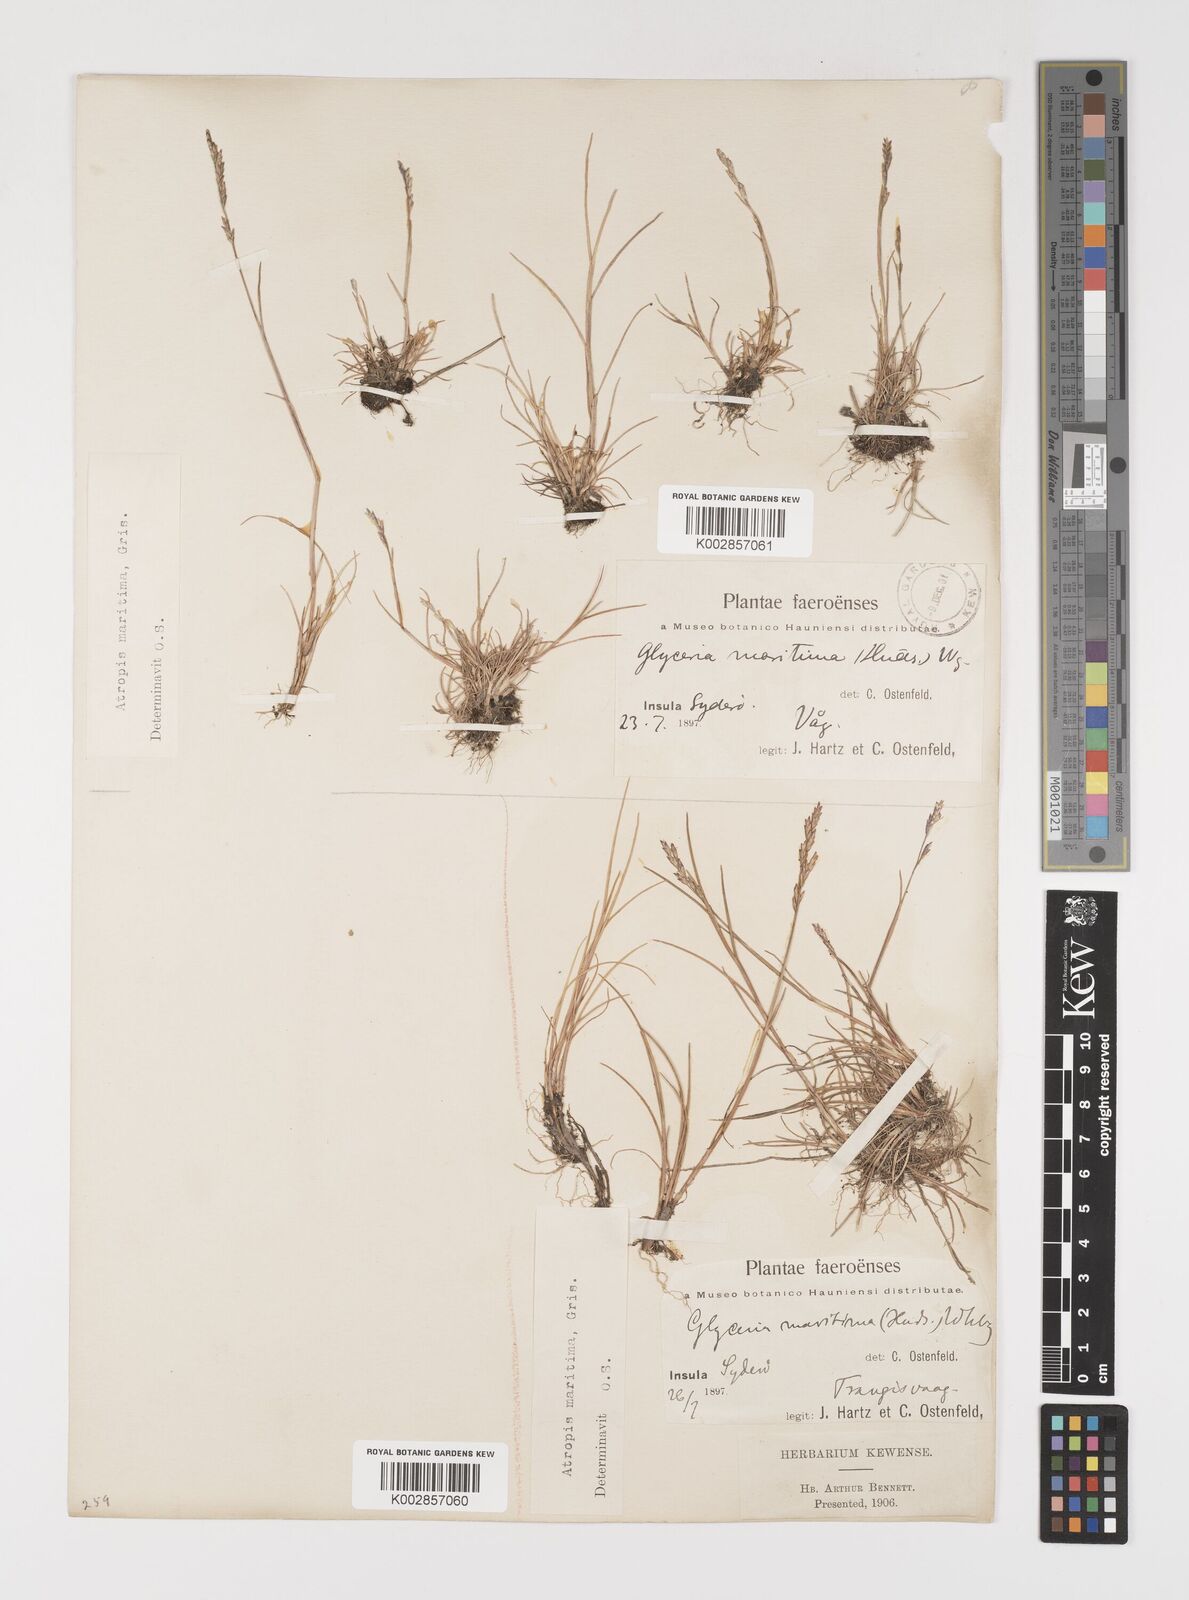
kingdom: Plantae
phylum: Tracheophyta
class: Liliopsida
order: Poales
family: Poaceae
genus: Puccinellia
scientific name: Puccinellia maritima
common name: Common saltmarsh grass
